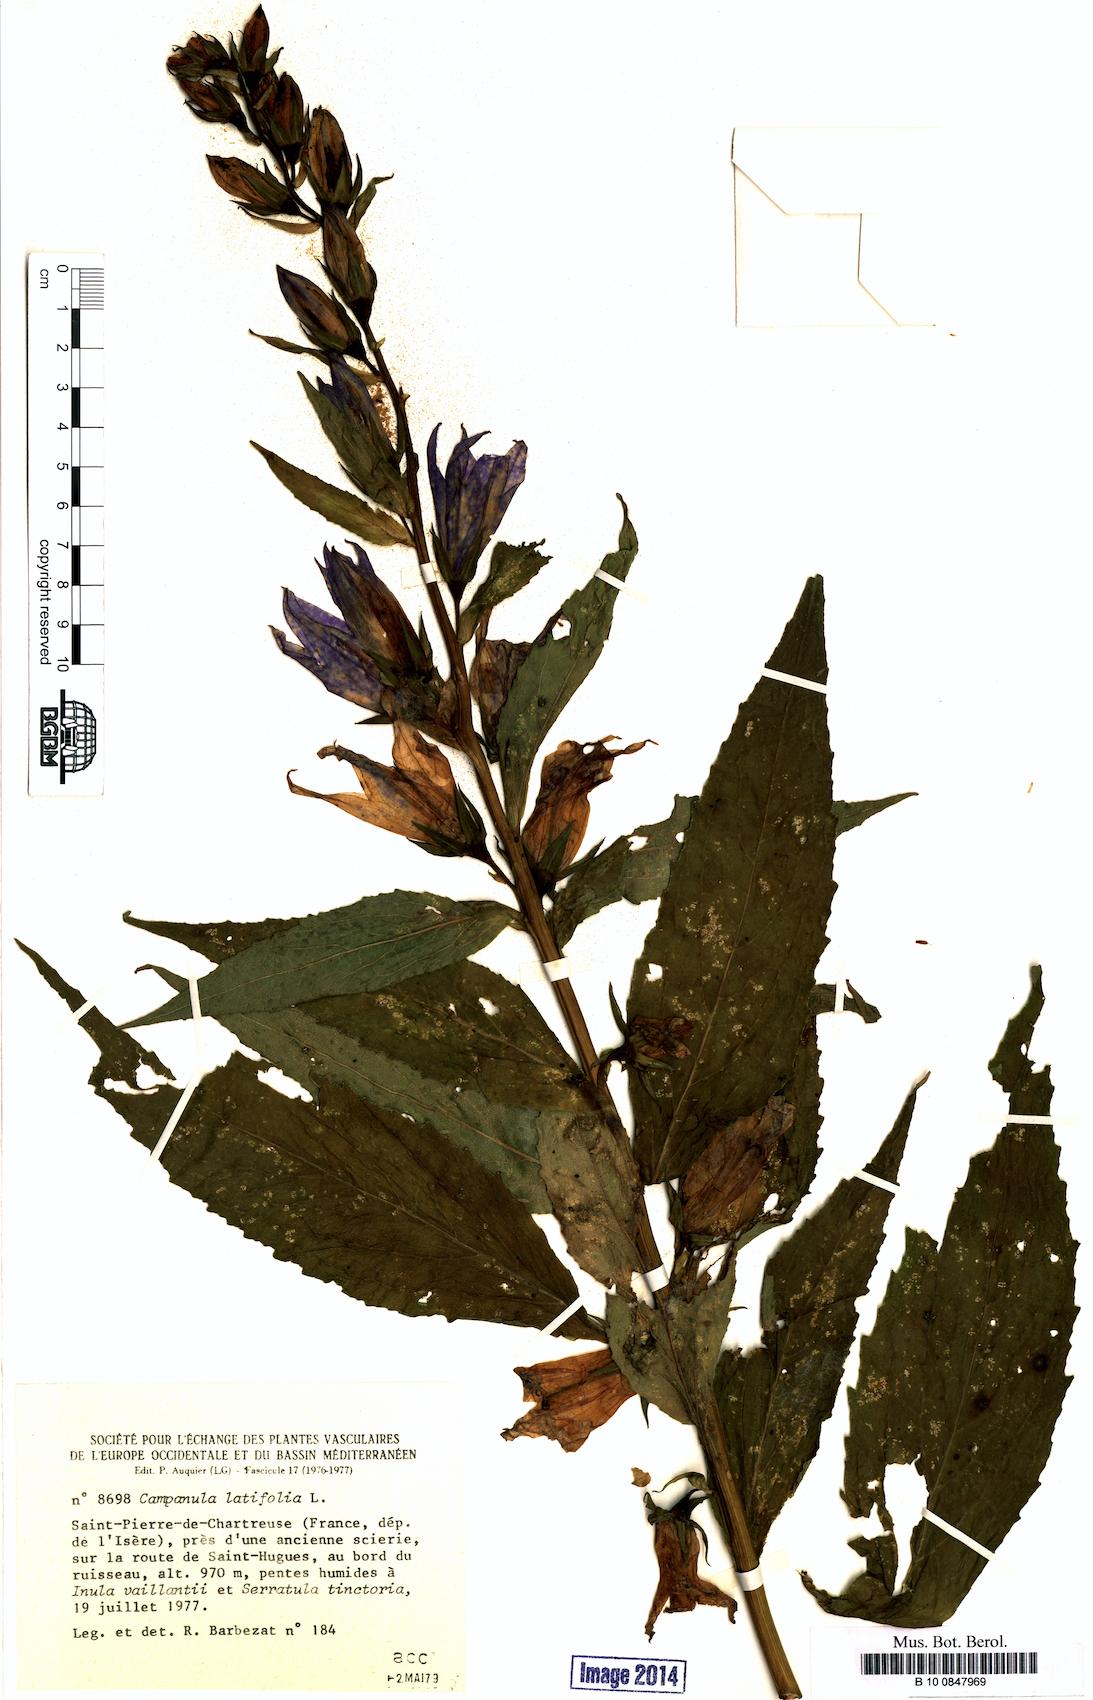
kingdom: Plantae
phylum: Tracheophyta
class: Magnoliopsida
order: Asterales
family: Campanulaceae
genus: Campanula
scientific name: Campanula latifolia
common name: Giant bellflower
